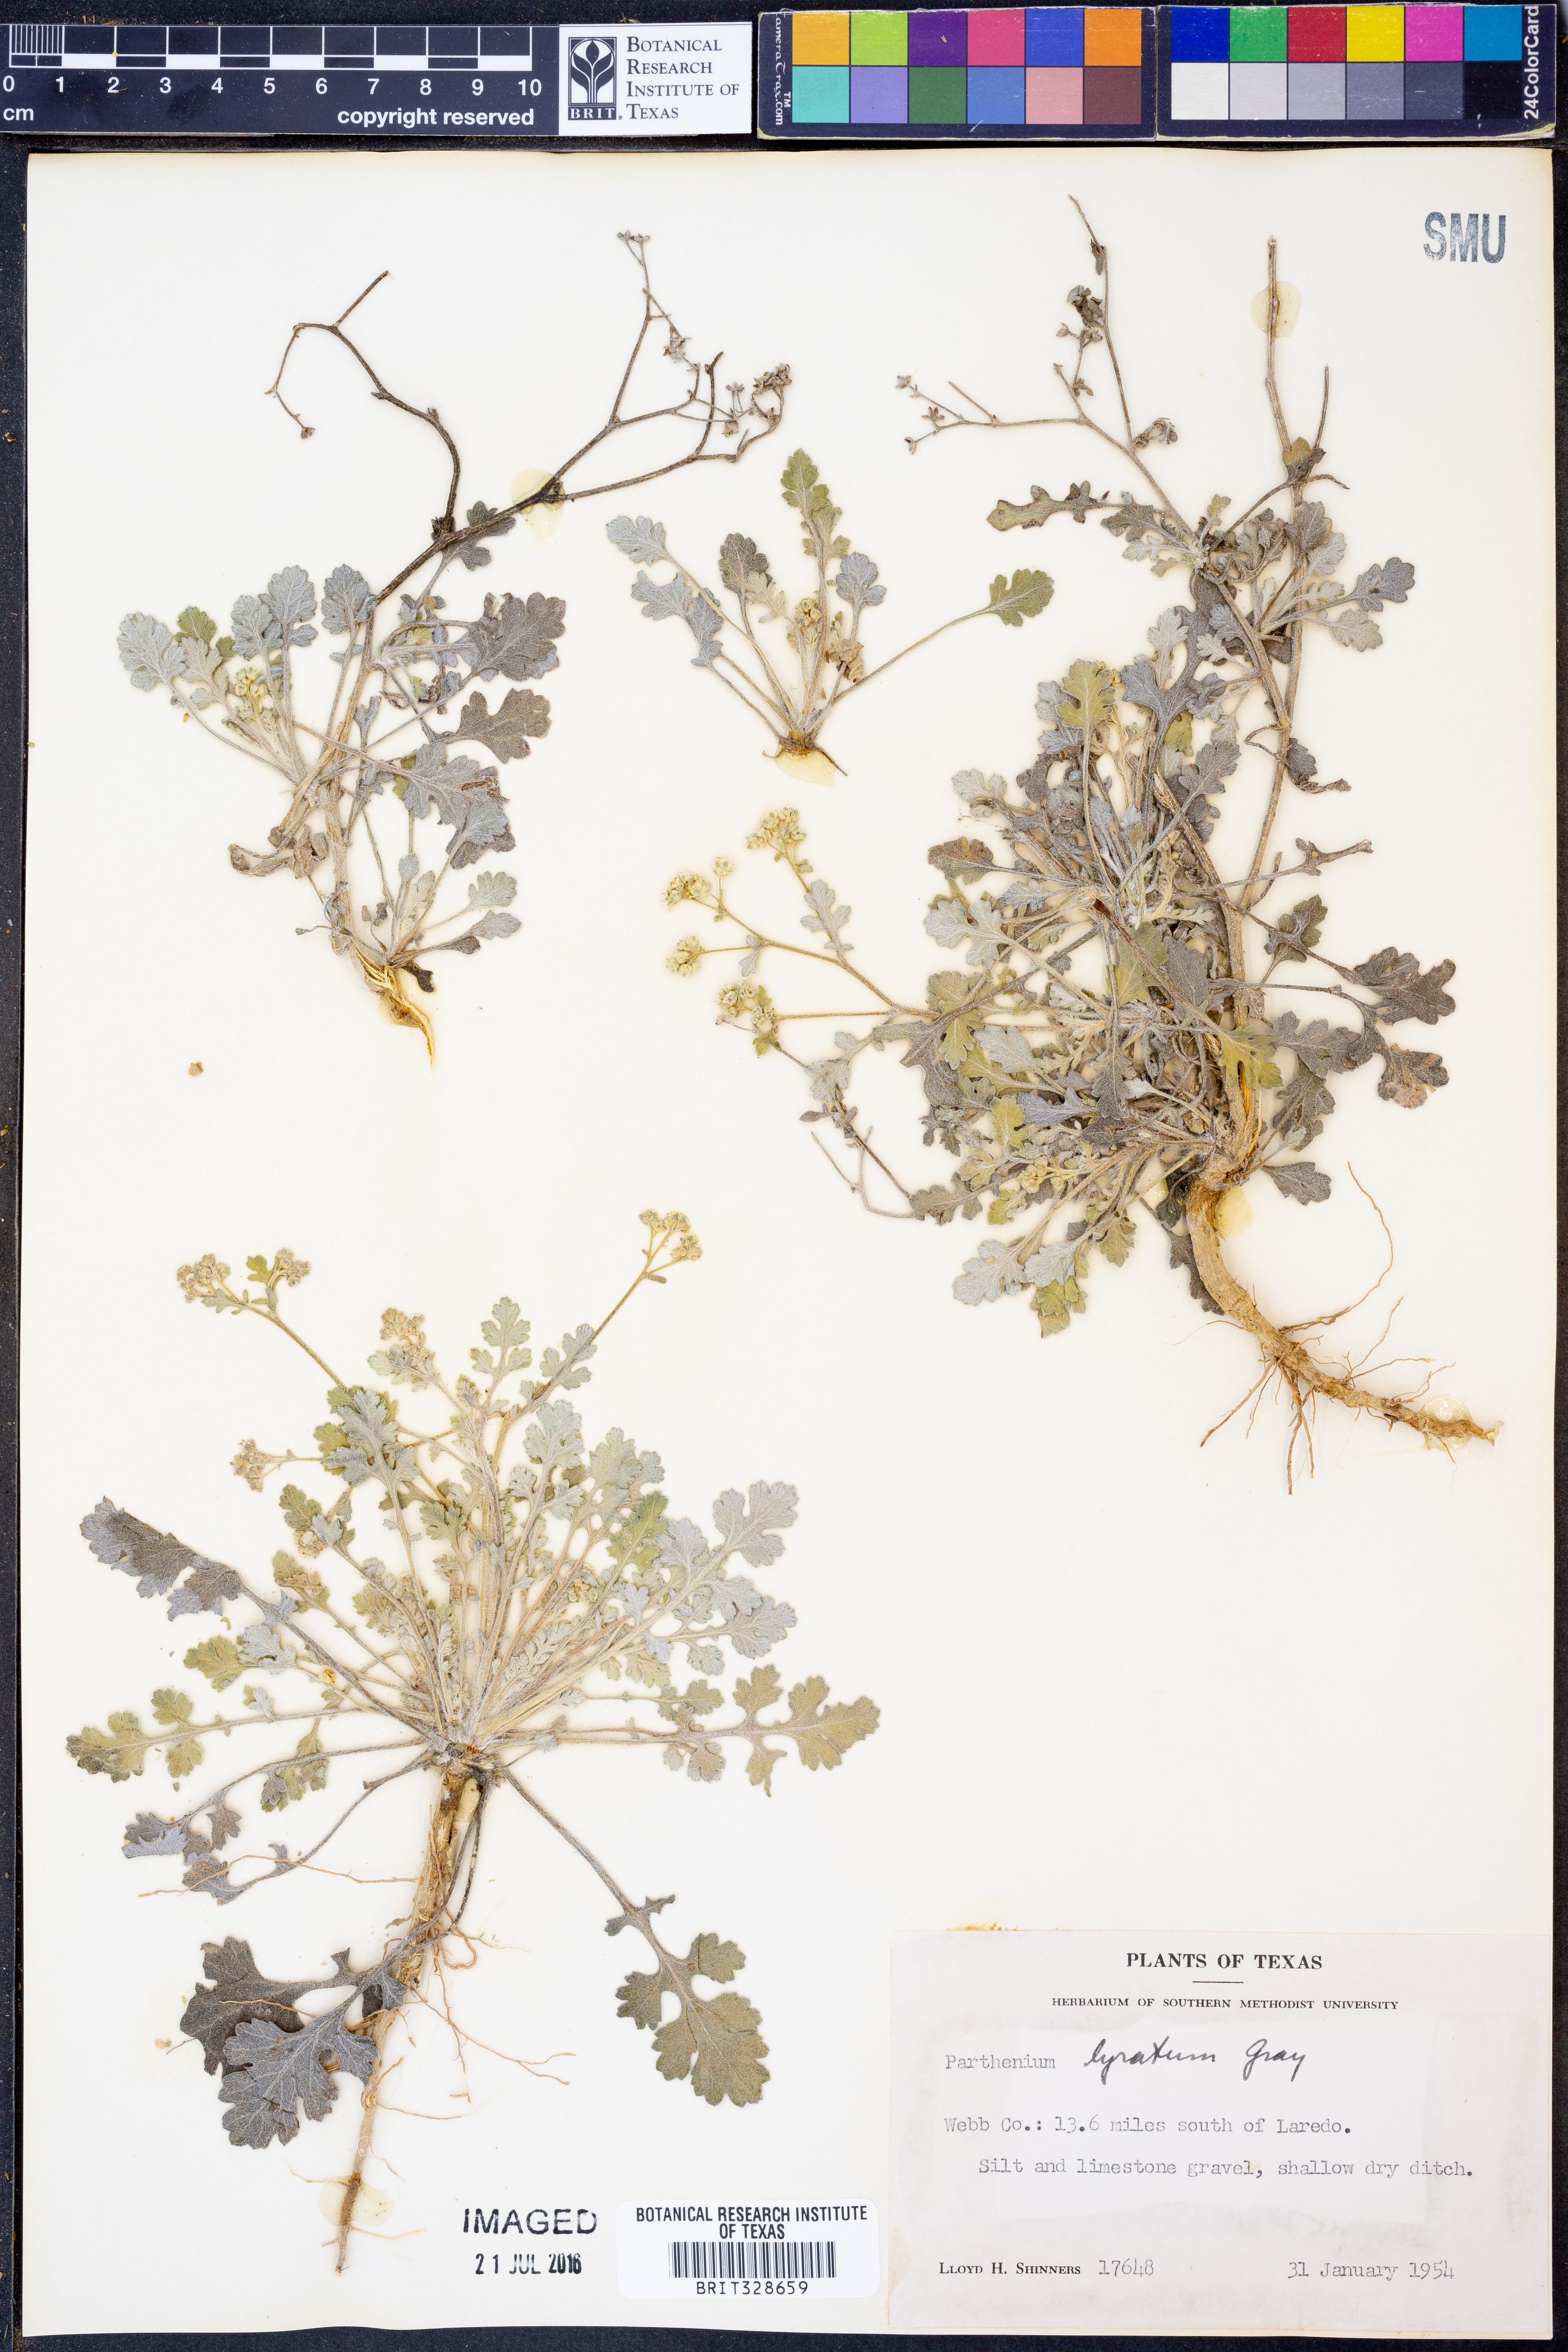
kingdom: Plantae
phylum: Tracheophyta
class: Magnoliopsida
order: Asterales
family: Asteraceae
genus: Parthenium
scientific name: Parthenium confertum
